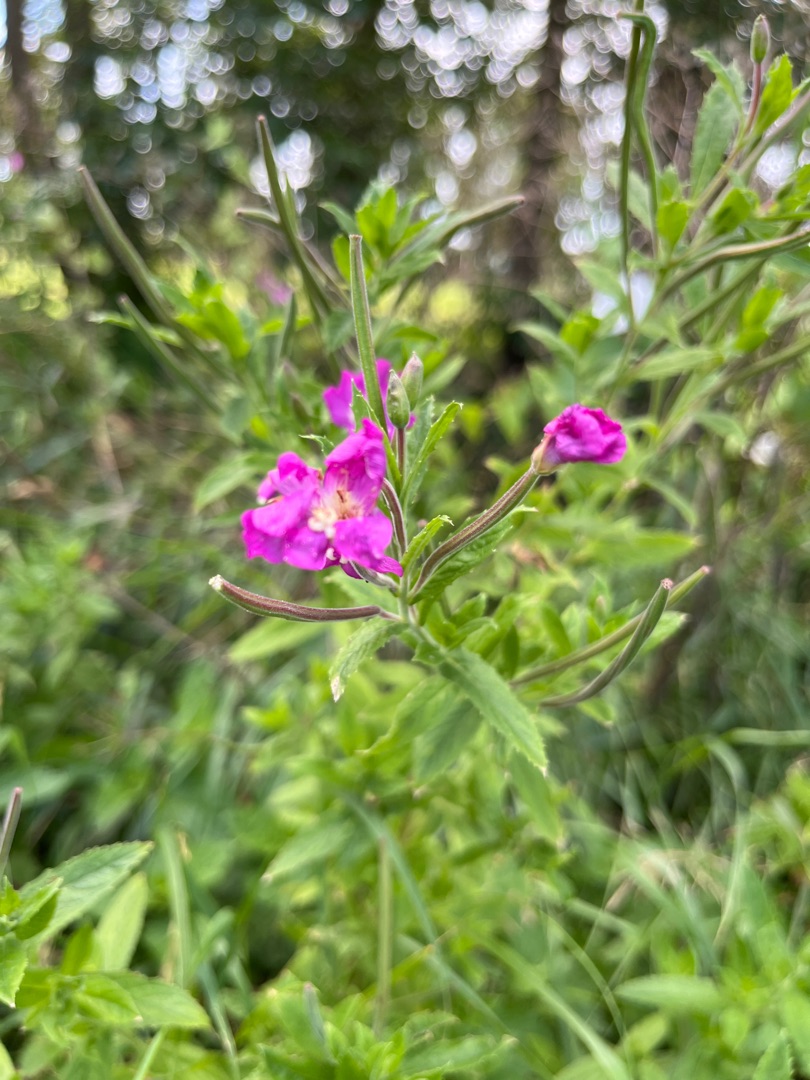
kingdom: Plantae
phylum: Tracheophyta
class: Magnoliopsida
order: Myrtales
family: Onagraceae
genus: Epilobium
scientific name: Epilobium hirsutum
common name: Lådden dueurt
